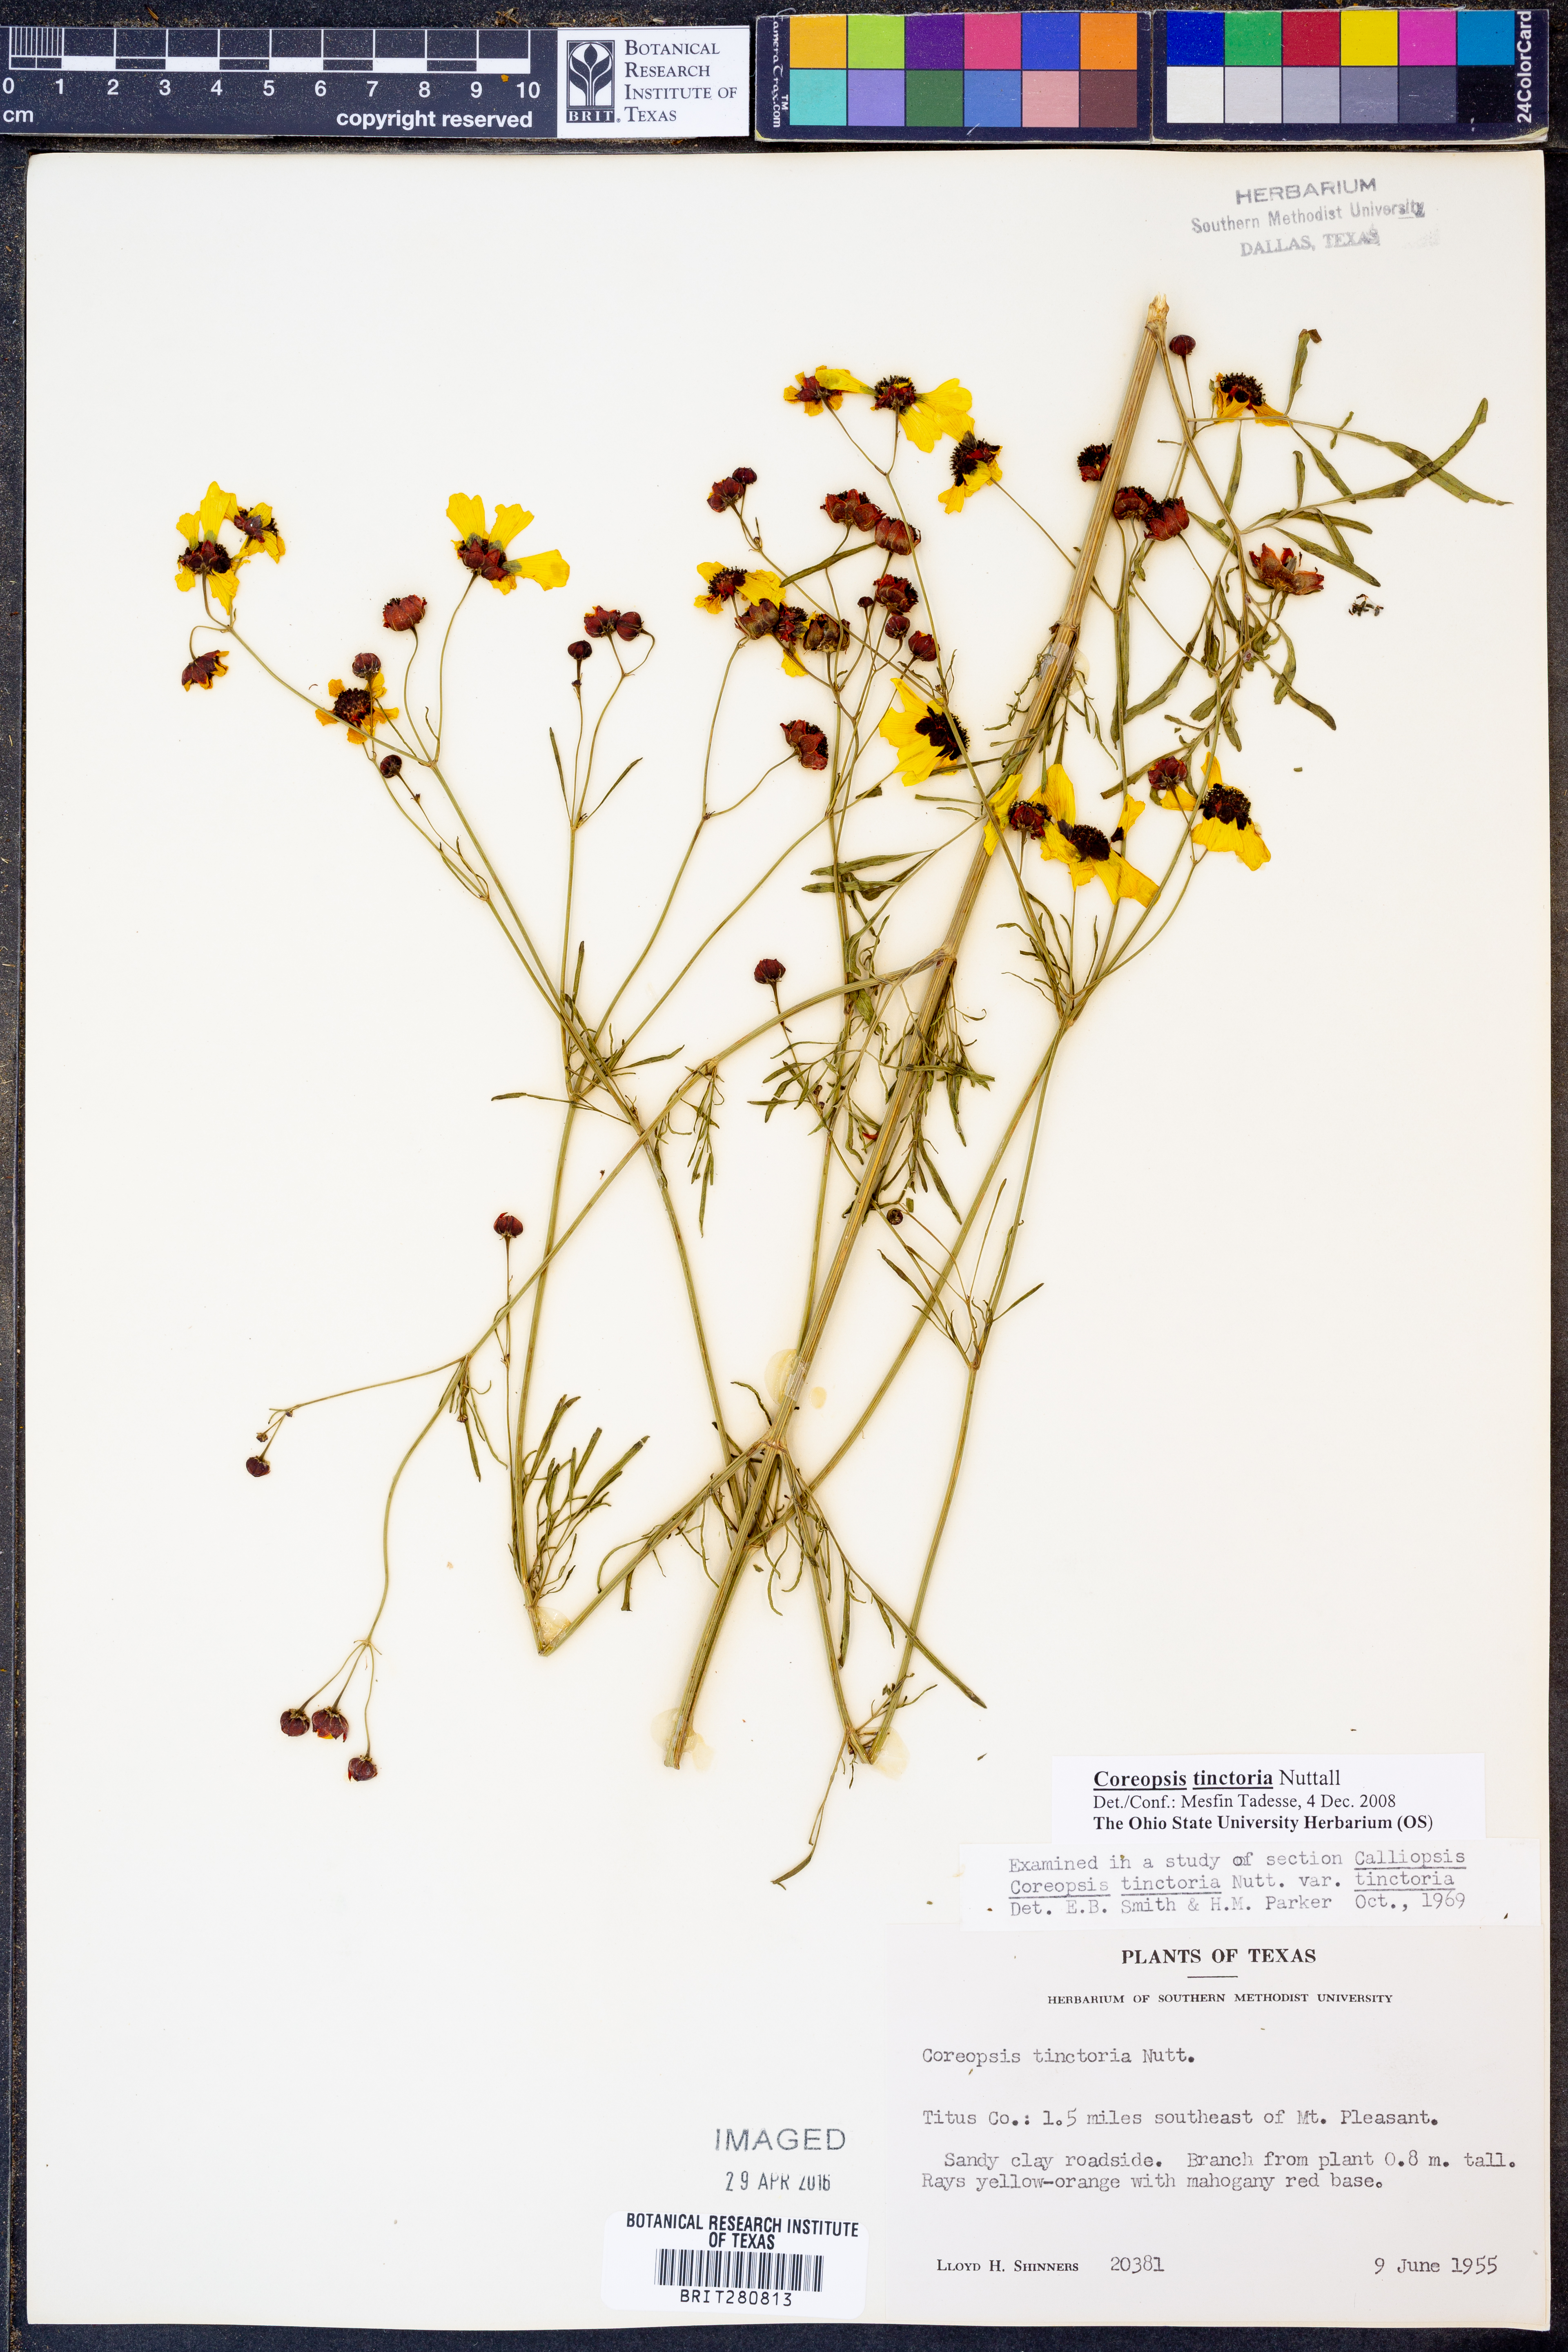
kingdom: Plantae
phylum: Tracheophyta
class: Magnoliopsida
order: Asterales
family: Asteraceae
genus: Coreopsis
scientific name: Coreopsis tinctoria
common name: Garden tickseed
